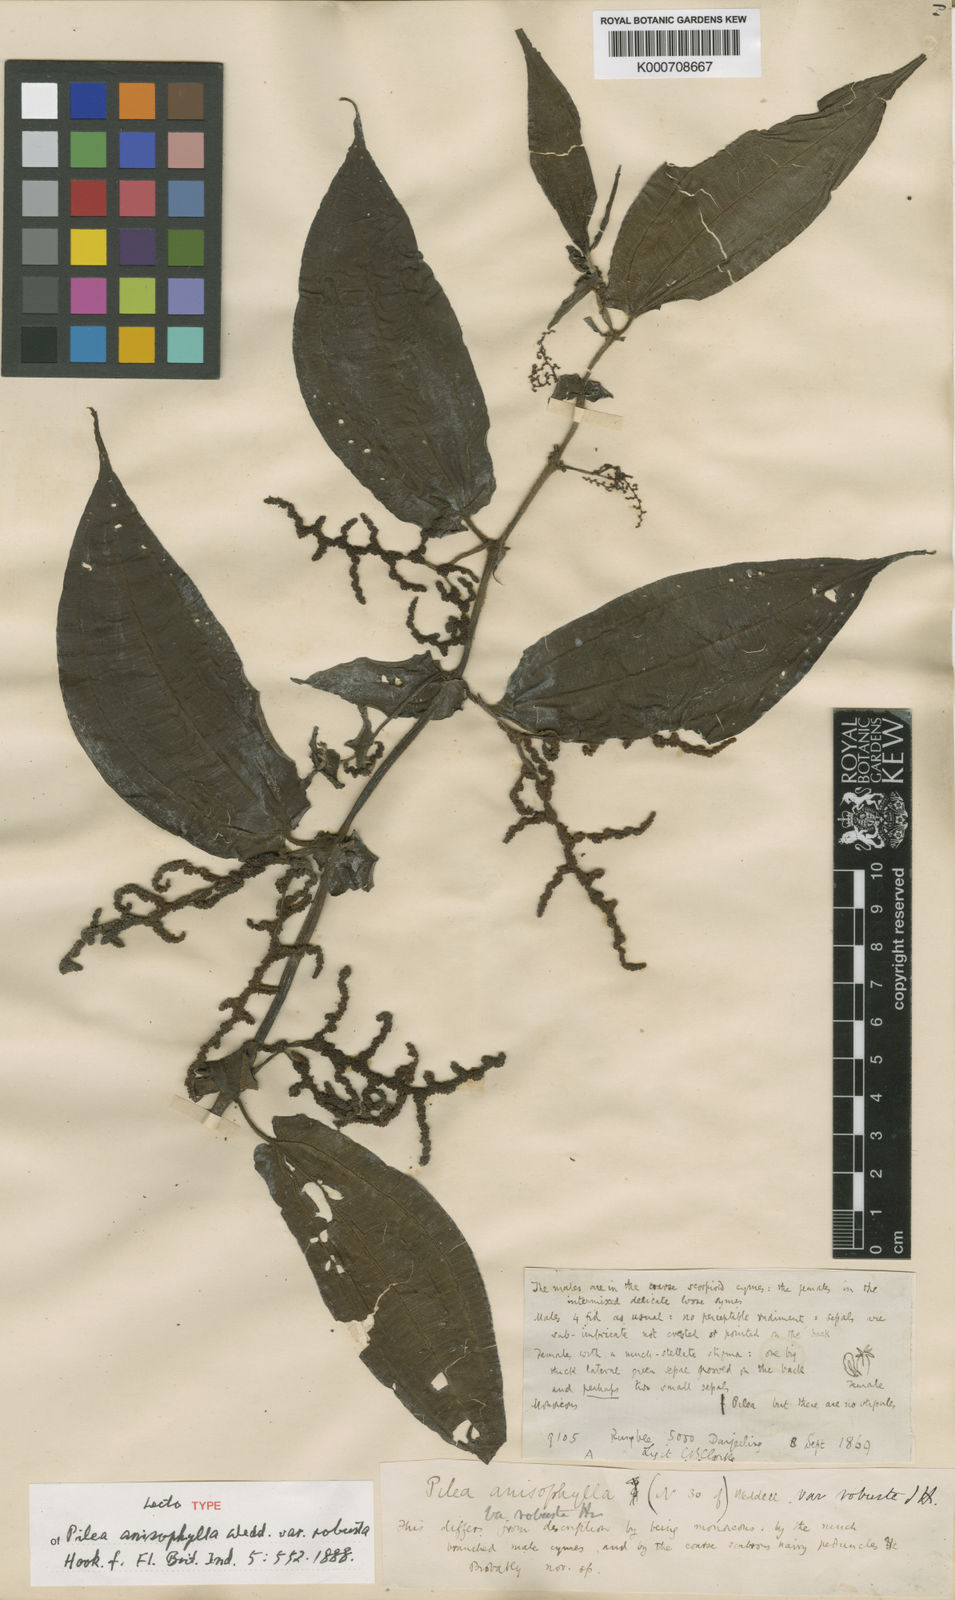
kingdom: Plantae
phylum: Tracheophyta
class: Magnoliopsida
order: Rosales
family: Urticaceae
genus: Pilea
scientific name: Pilea anisophylla
